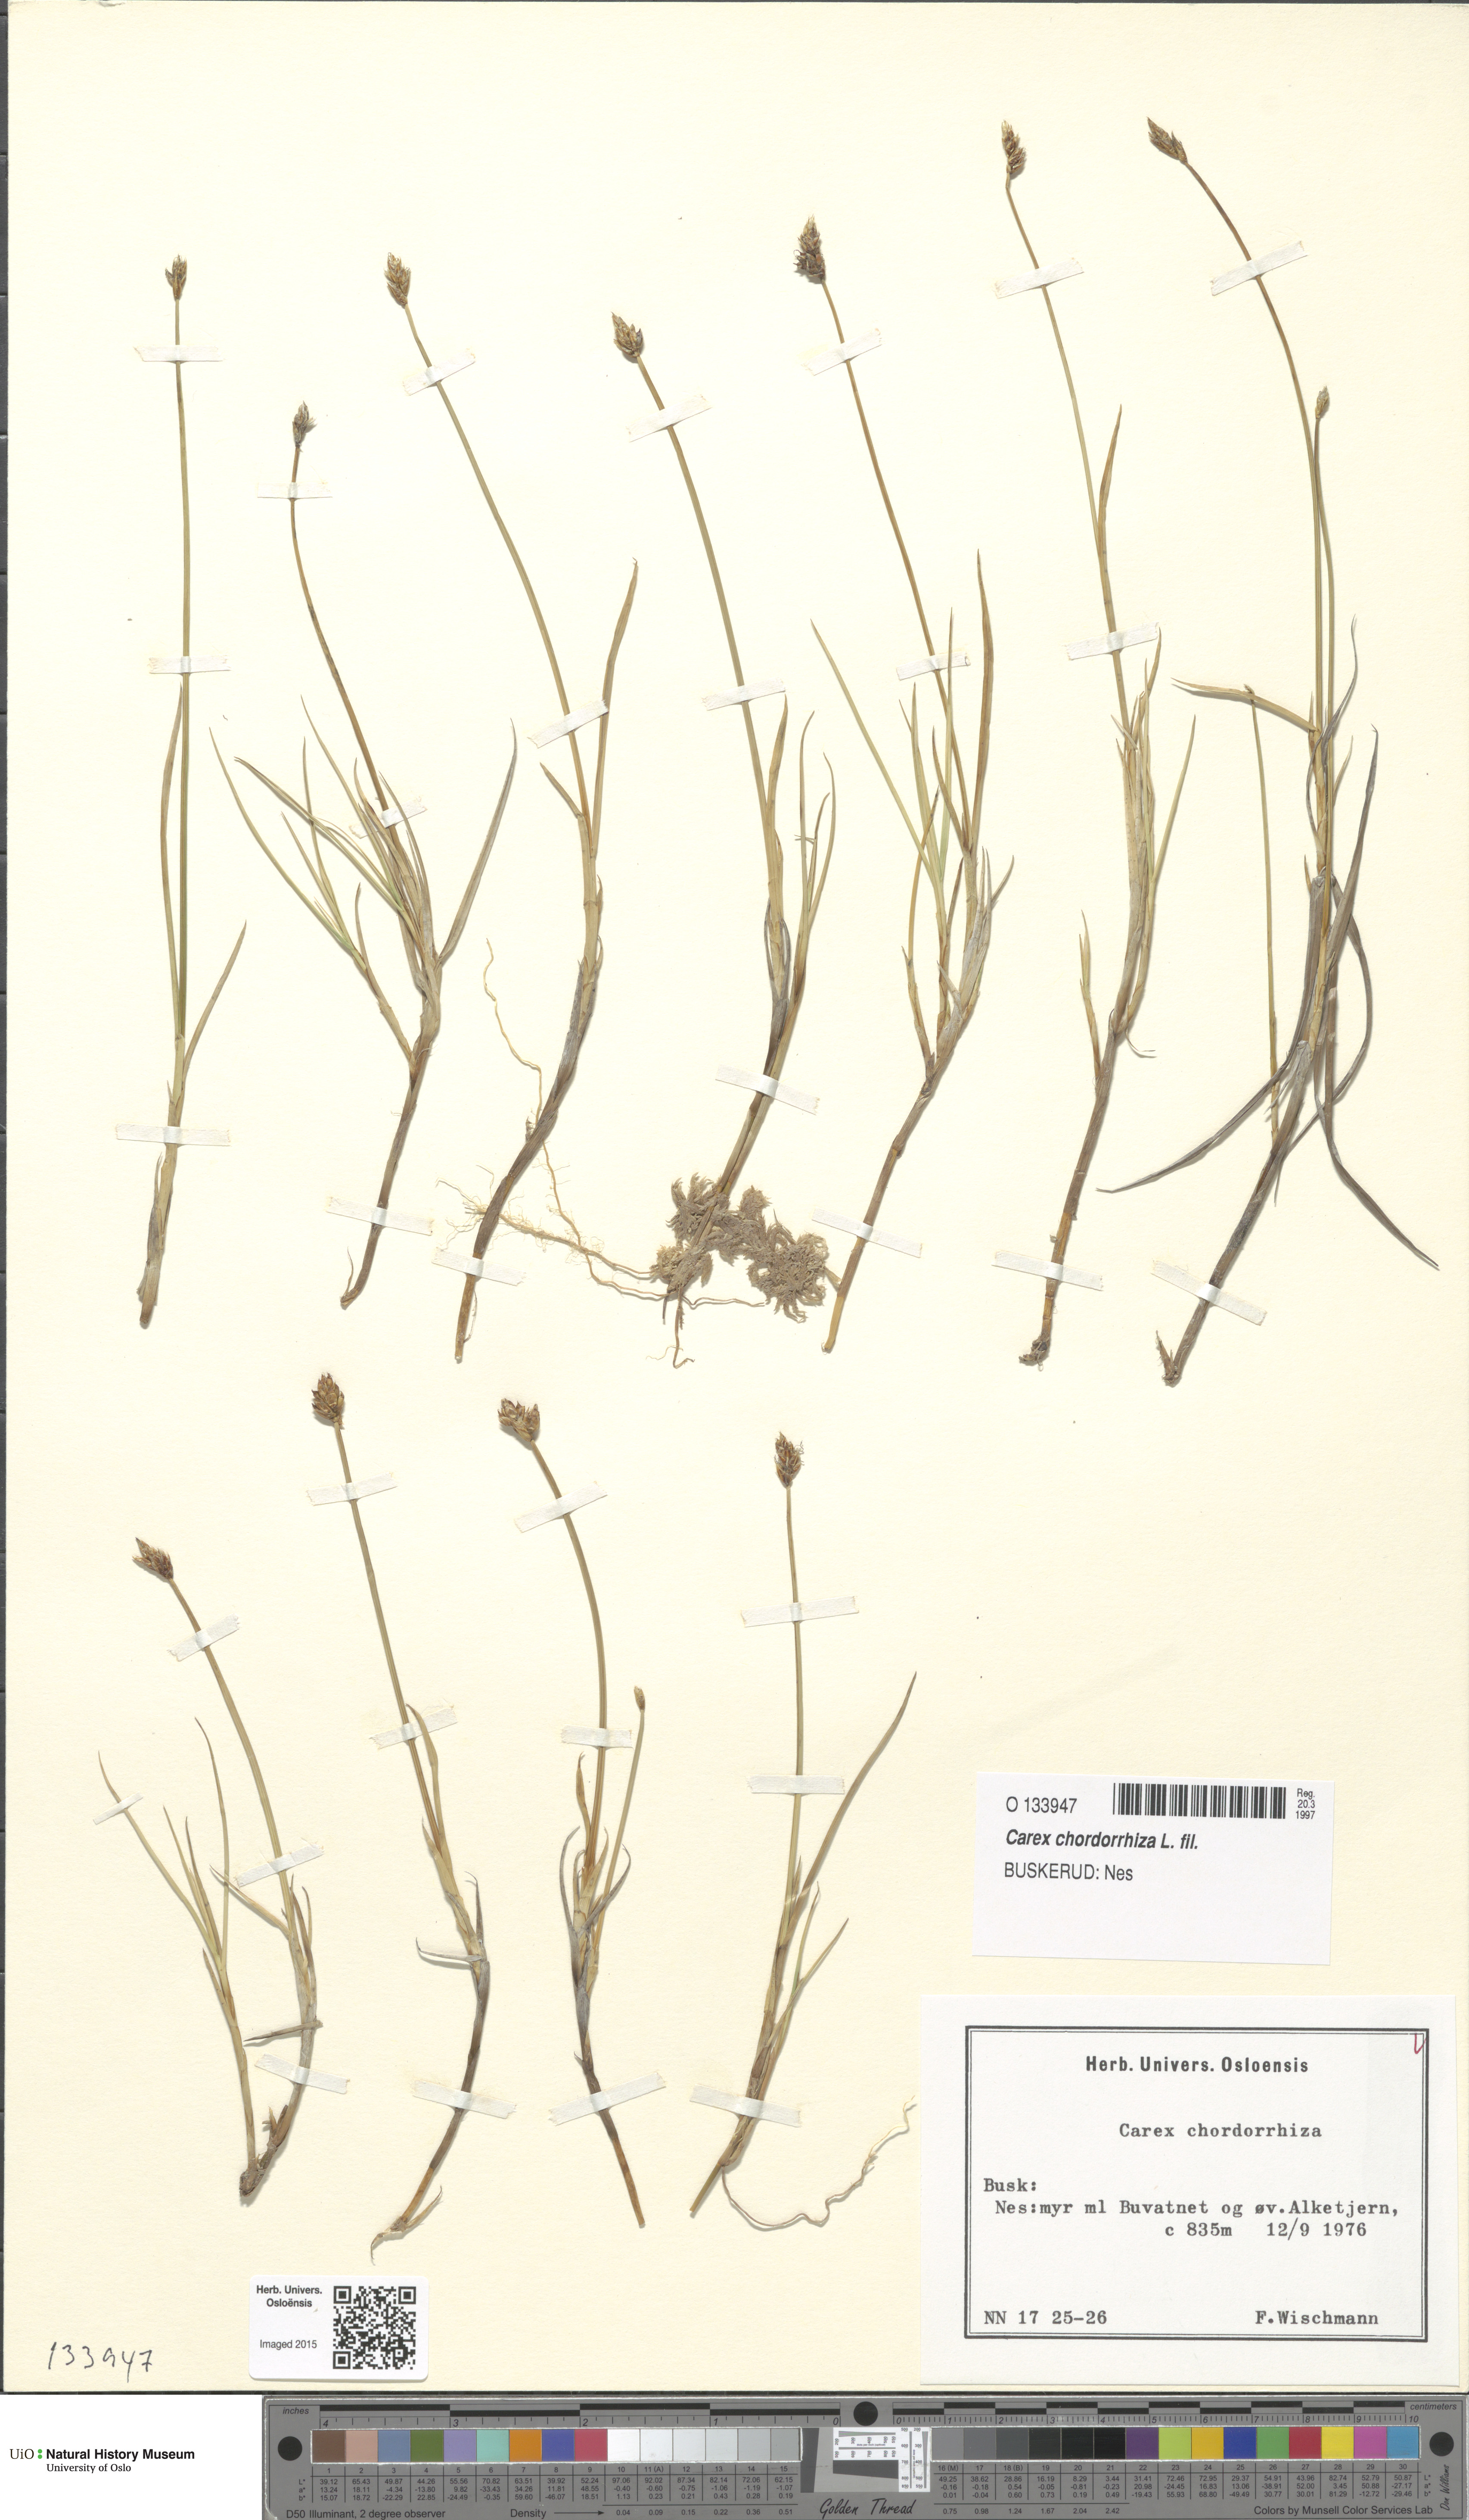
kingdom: Plantae
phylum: Tracheophyta
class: Liliopsida
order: Poales
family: Cyperaceae
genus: Carex
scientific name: Carex chordorrhiza
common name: String sedge
